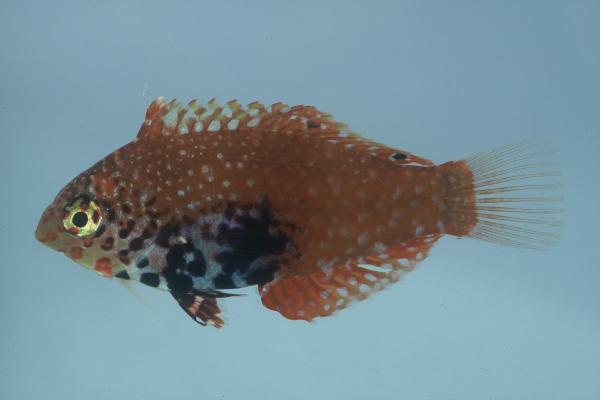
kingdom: Animalia
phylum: Chordata
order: Perciformes
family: Labridae
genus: Macropharyngodon
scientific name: Macropharyngodon bipartitus
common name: Divided wrasse
